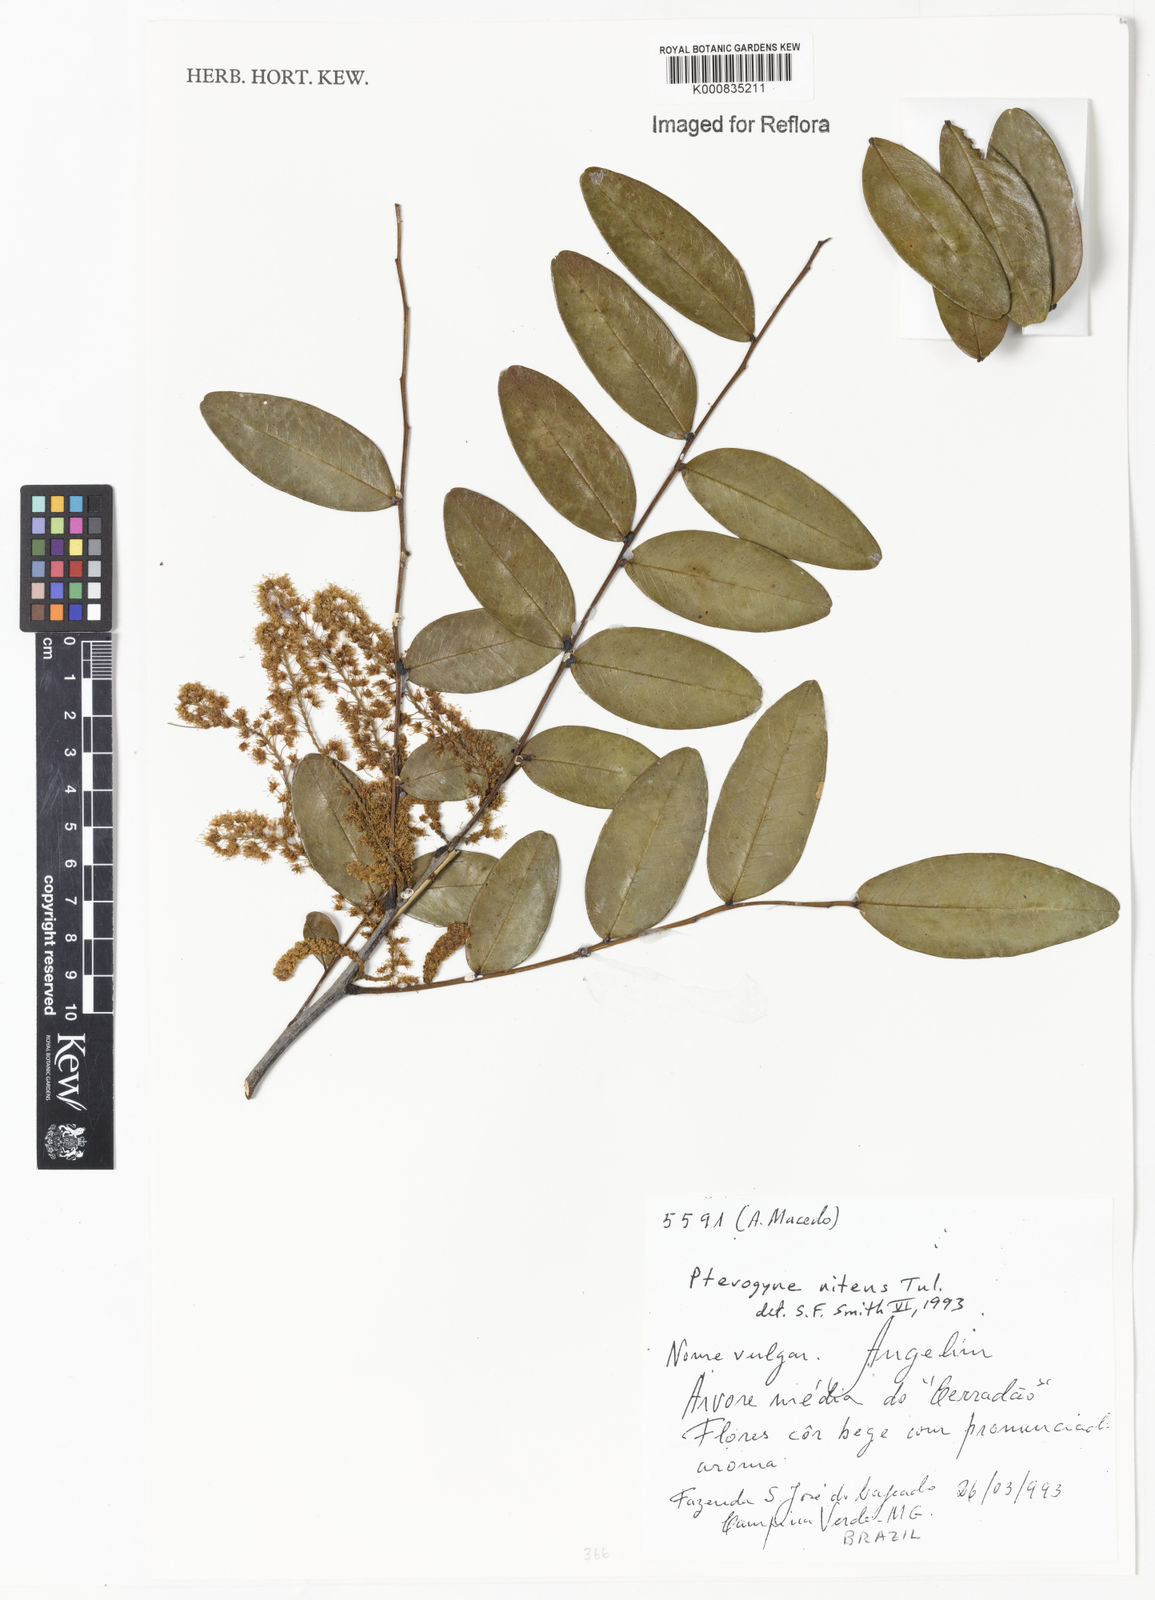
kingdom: Plantae
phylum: Tracheophyta
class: Magnoliopsida
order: Fabales
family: Fabaceae
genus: Pterogyne
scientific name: Pterogyne nitens
